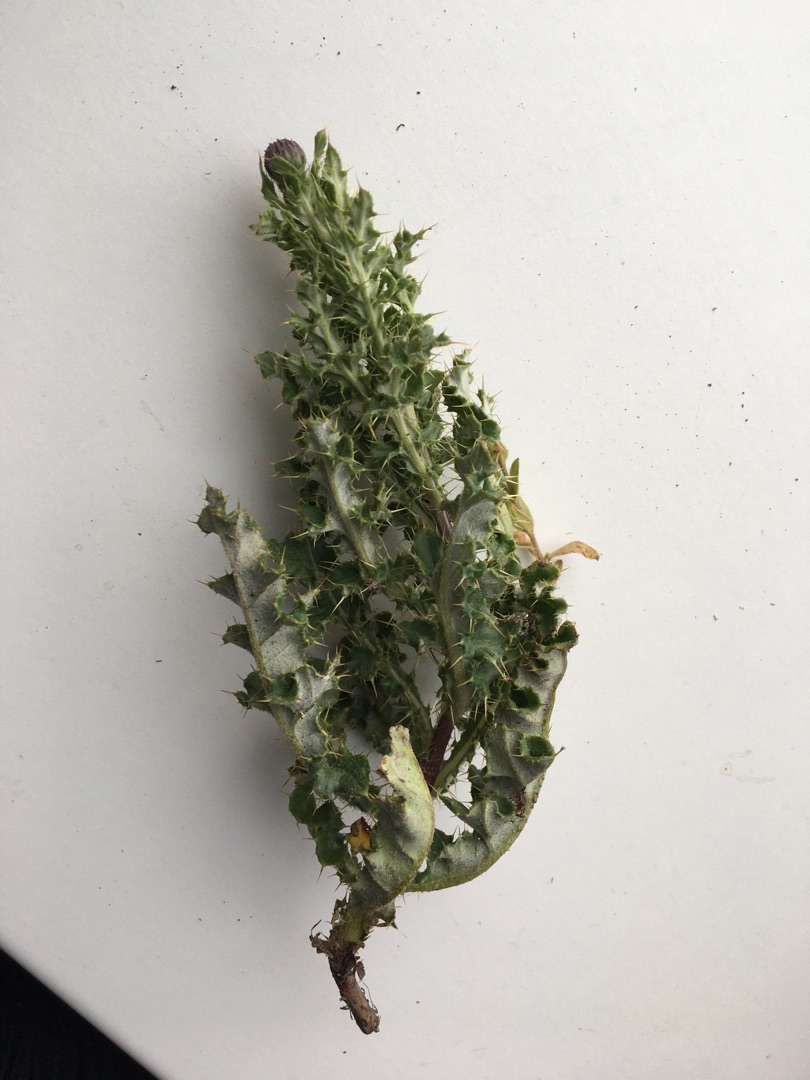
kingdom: Plantae
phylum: Tracheophyta
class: Magnoliopsida
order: Asterales
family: Asteraceae
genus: Cirsium
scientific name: Cirsium arvense
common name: Ager-tidsel
